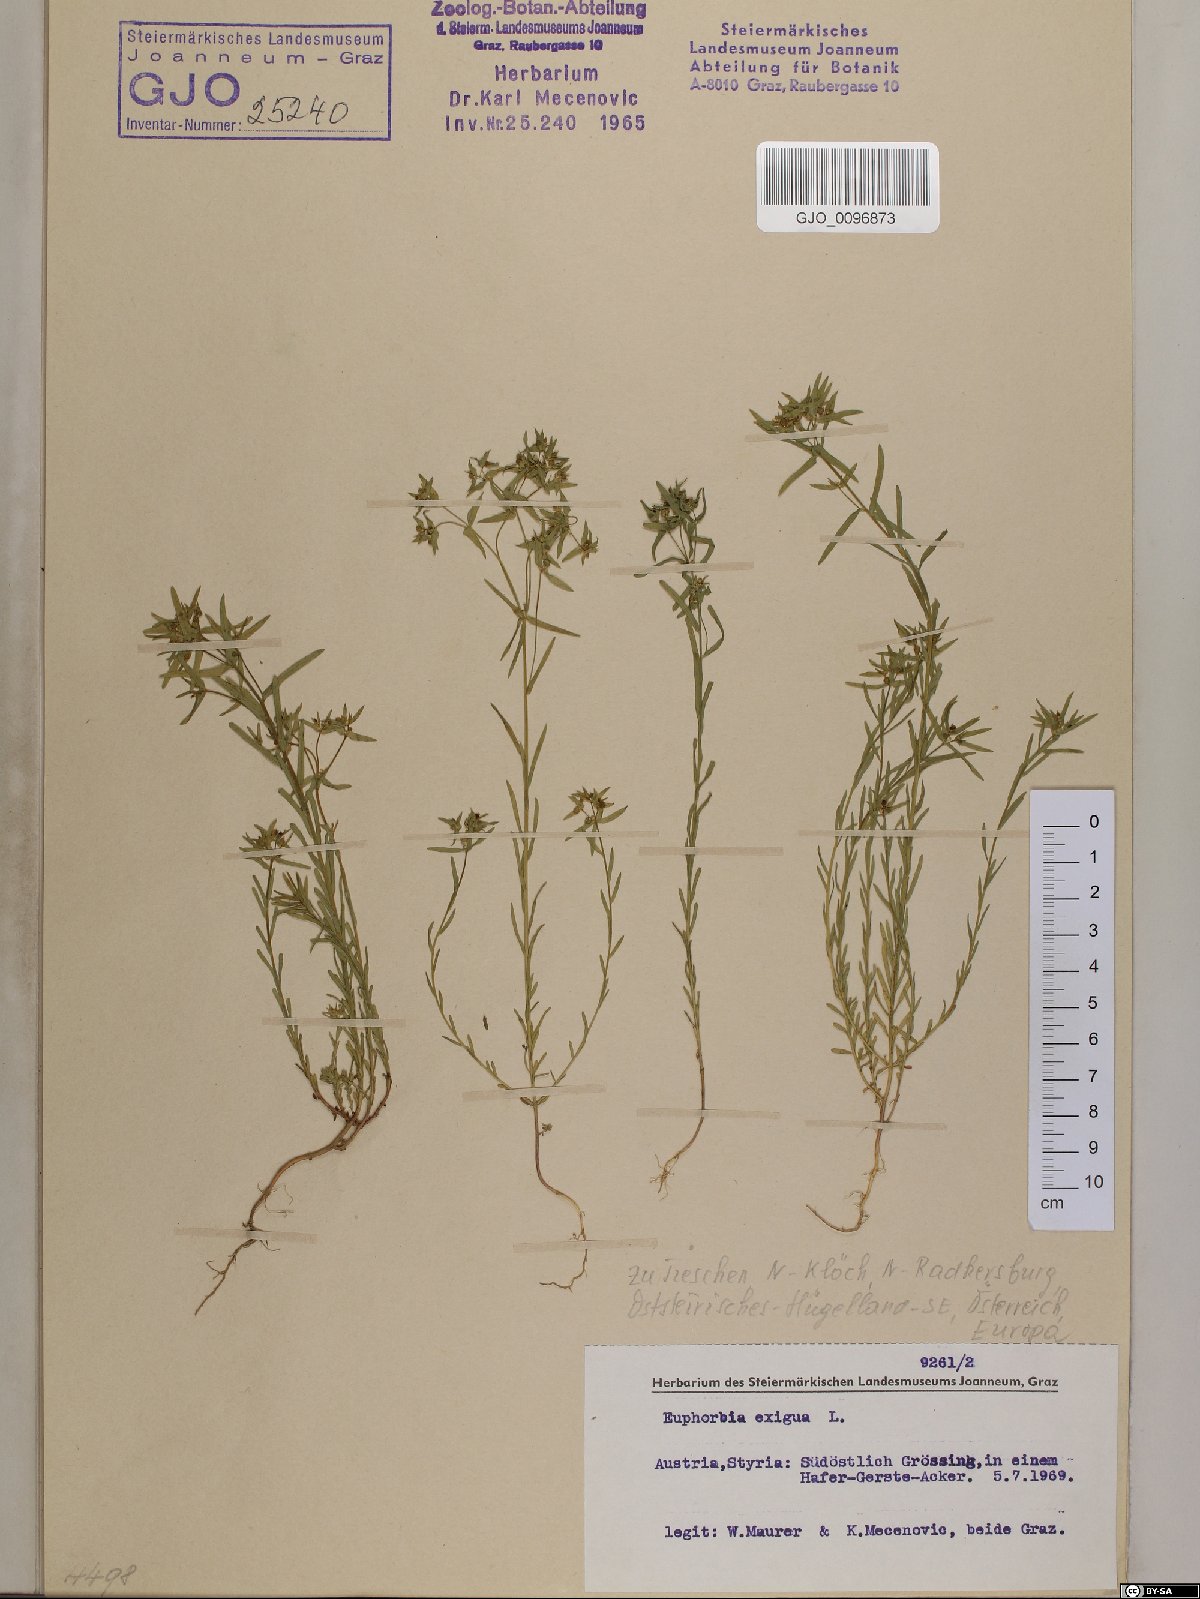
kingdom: Plantae
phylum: Tracheophyta
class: Magnoliopsida
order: Malpighiales
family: Euphorbiaceae
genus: Euphorbia
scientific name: Euphorbia exigua
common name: Dwarf spurge
